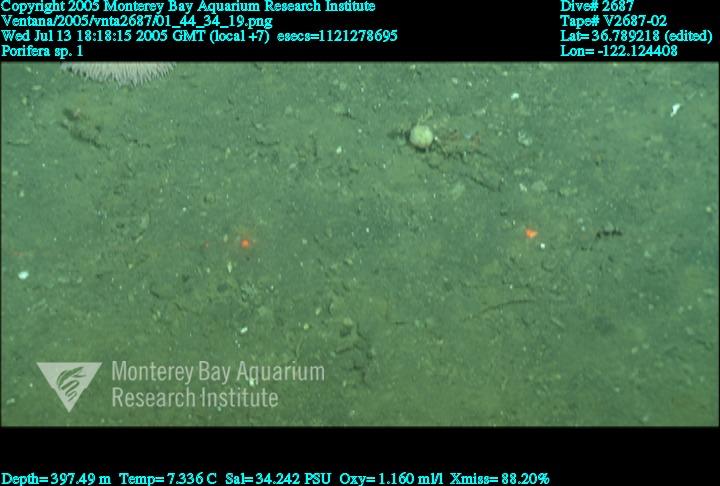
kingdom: Animalia
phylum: Porifera
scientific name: Porifera
